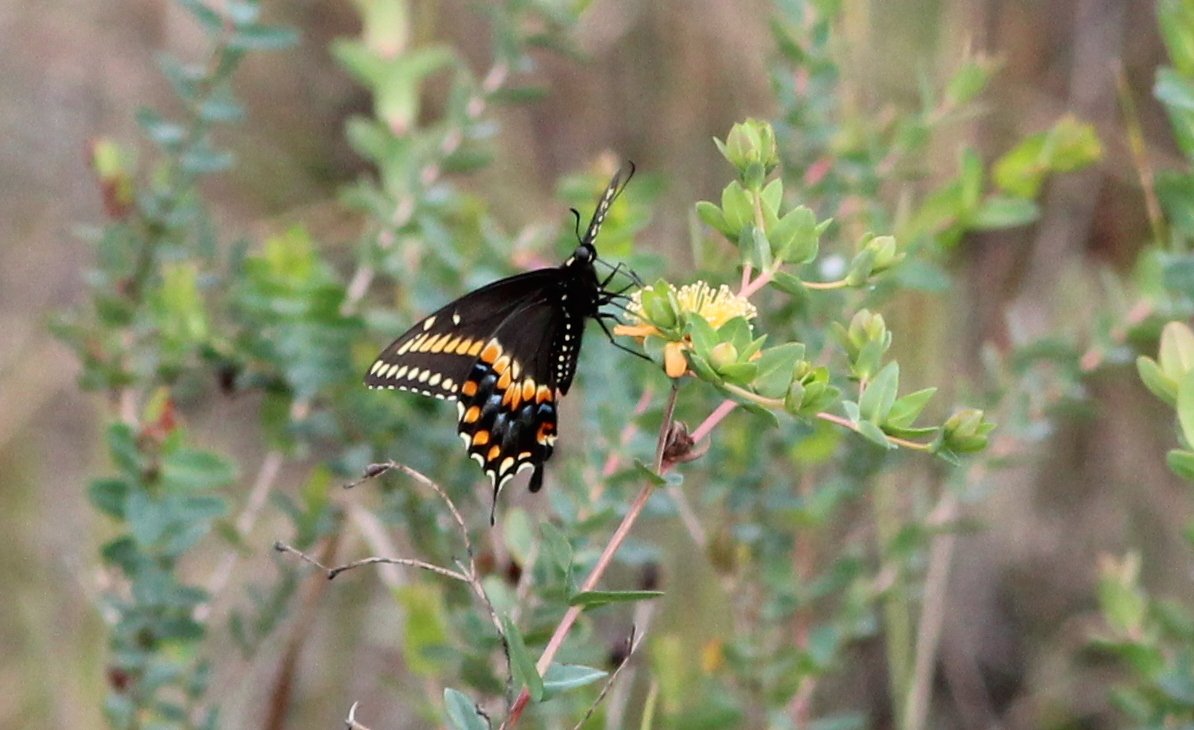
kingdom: Animalia
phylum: Arthropoda
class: Insecta
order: Lepidoptera
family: Papilionidae
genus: Papilio
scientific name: Papilio polyxenes
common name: Black Swallowtail
